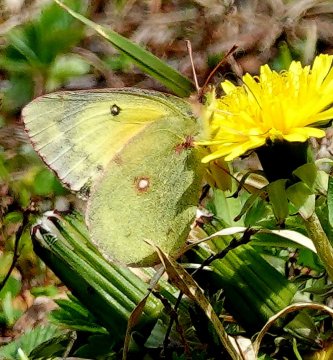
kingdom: Animalia
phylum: Arthropoda
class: Insecta
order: Lepidoptera
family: Pieridae
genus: Colias
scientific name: Colias eurytheme
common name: Orange Sulphur
